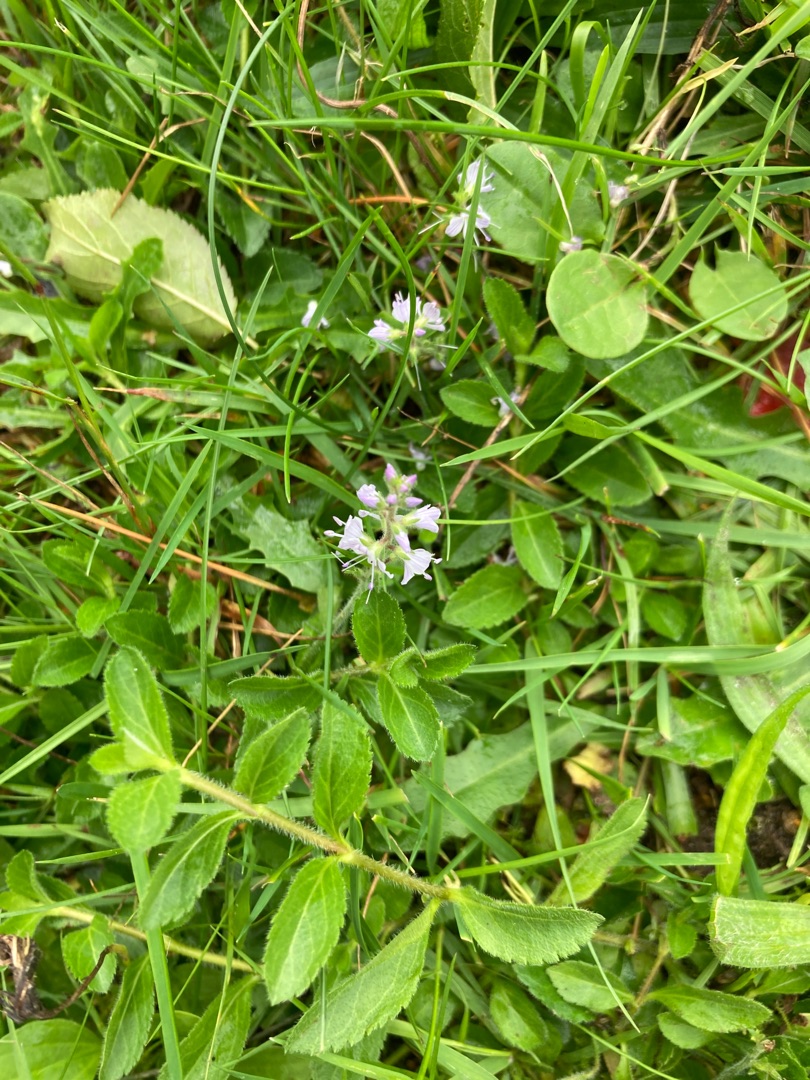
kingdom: Plantae
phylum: Tracheophyta
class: Magnoliopsida
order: Lamiales
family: Plantaginaceae
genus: Veronica
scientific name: Veronica officinalis
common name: Læge-ærenpris
